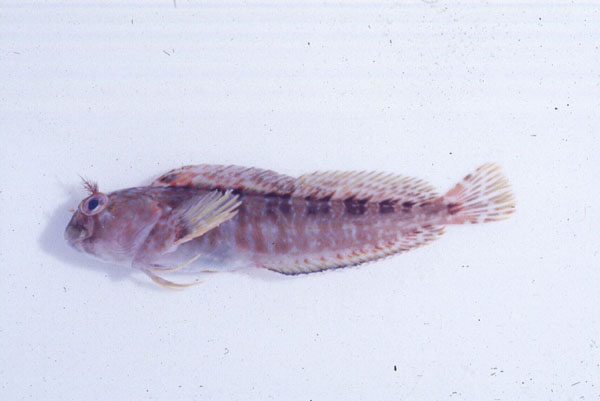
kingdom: Animalia
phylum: Chordata
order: Perciformes
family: Blenniidae
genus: Parablennius
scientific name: Parablennius
